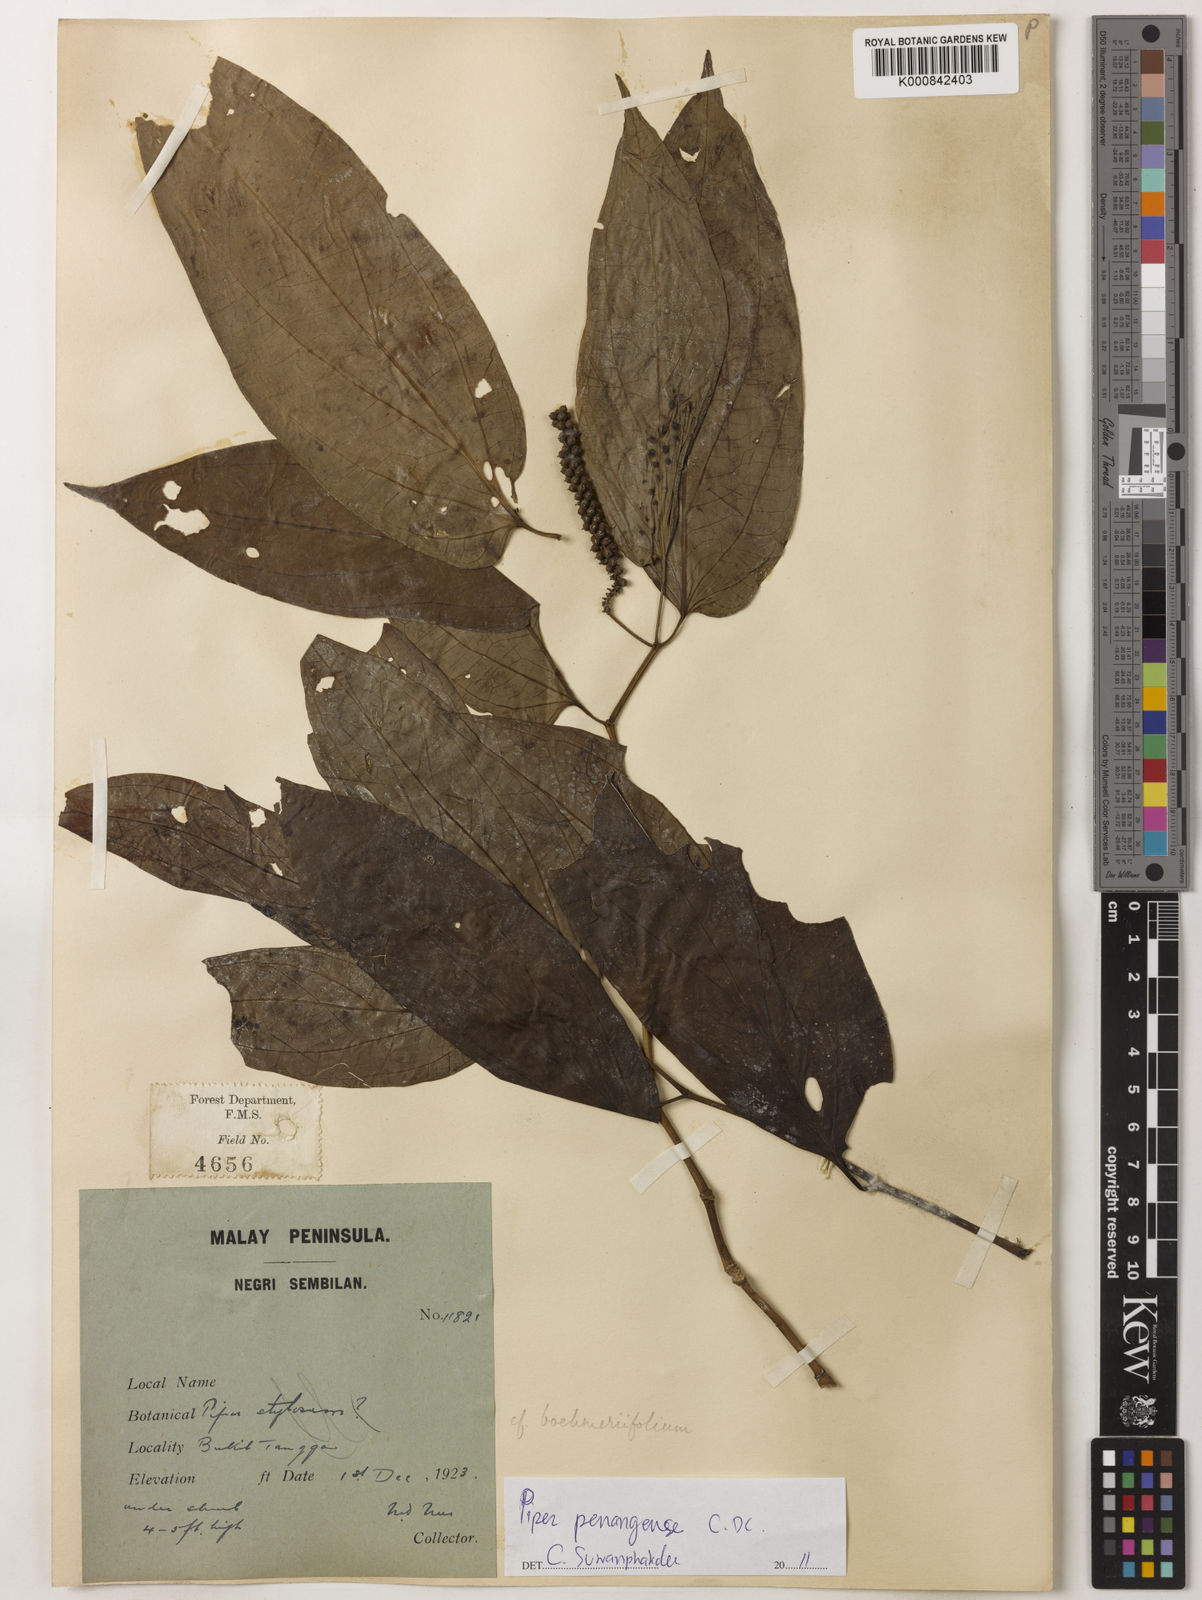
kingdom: Plantae
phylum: Tracheophyta
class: Magnoliopsida
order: Piperales
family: Piperaceae
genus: Piper
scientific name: Piper penangense
